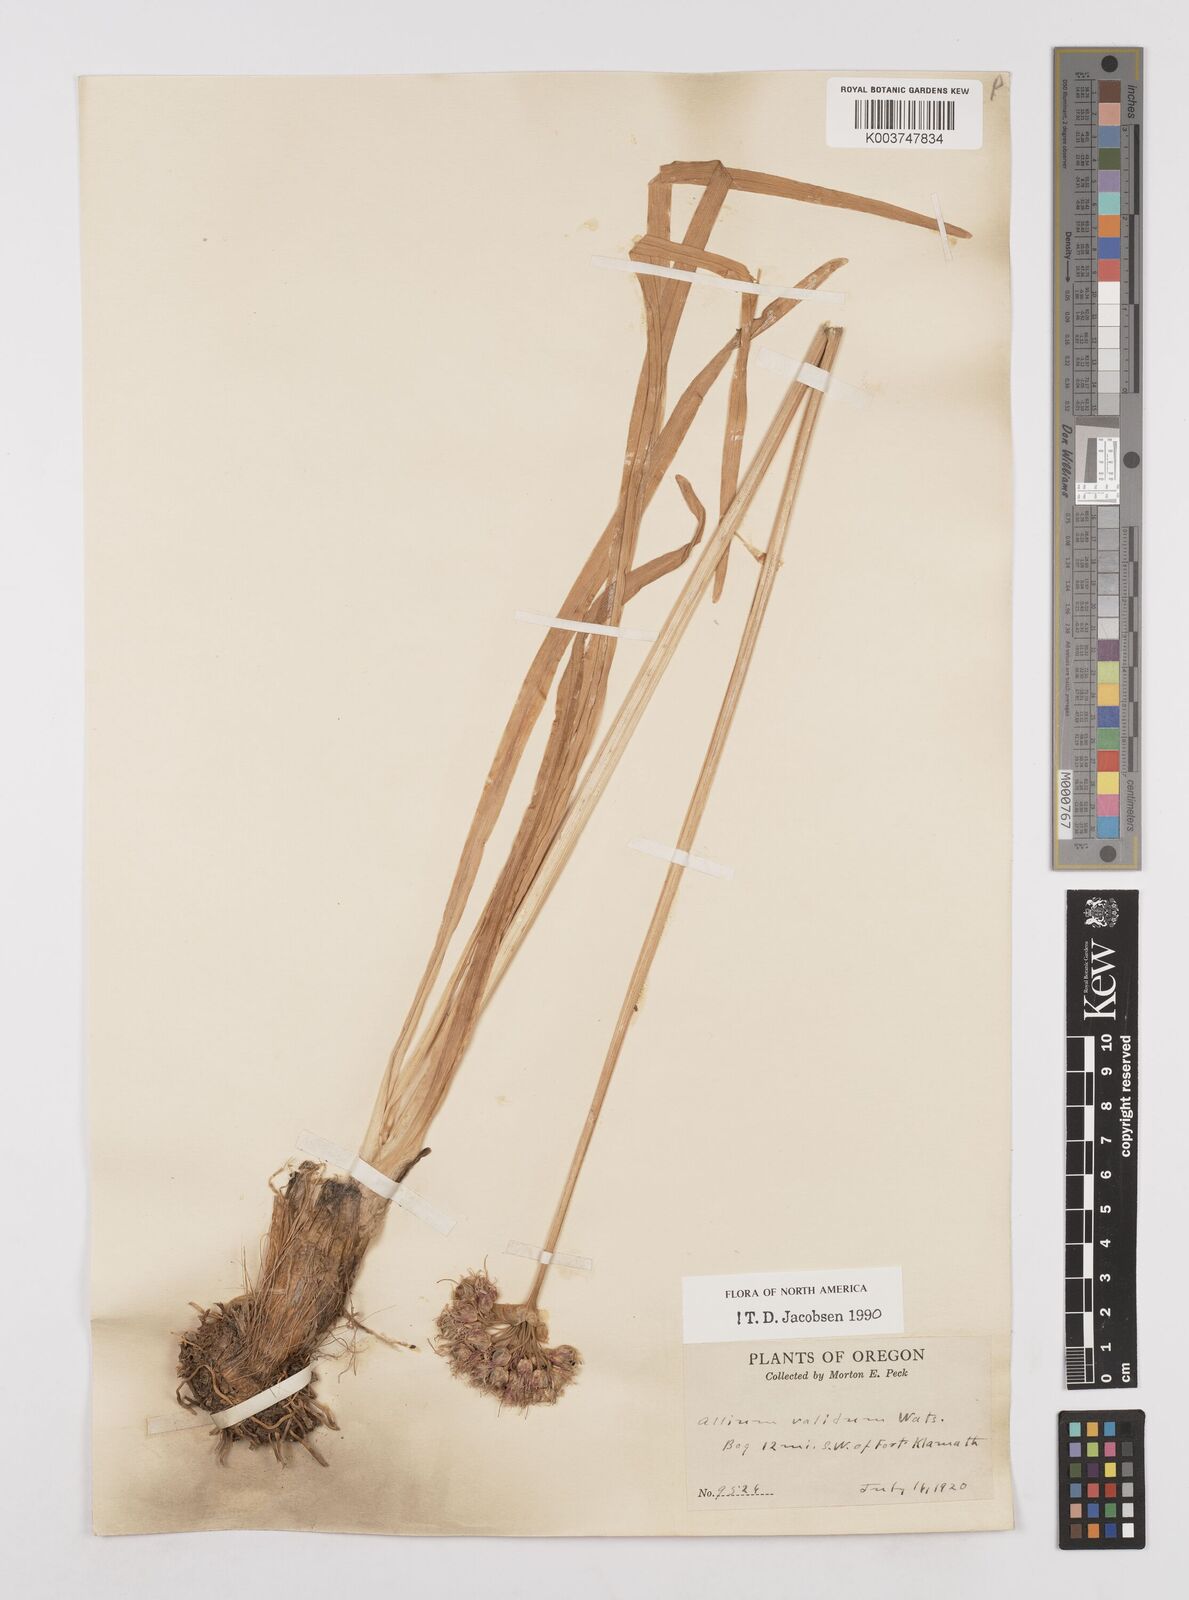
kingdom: Plantae
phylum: Tracheophyta
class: Liliopsida
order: Asparagales
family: Amaryllidaceae
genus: Allium
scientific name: Allium validum
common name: Pacific mountain onion
